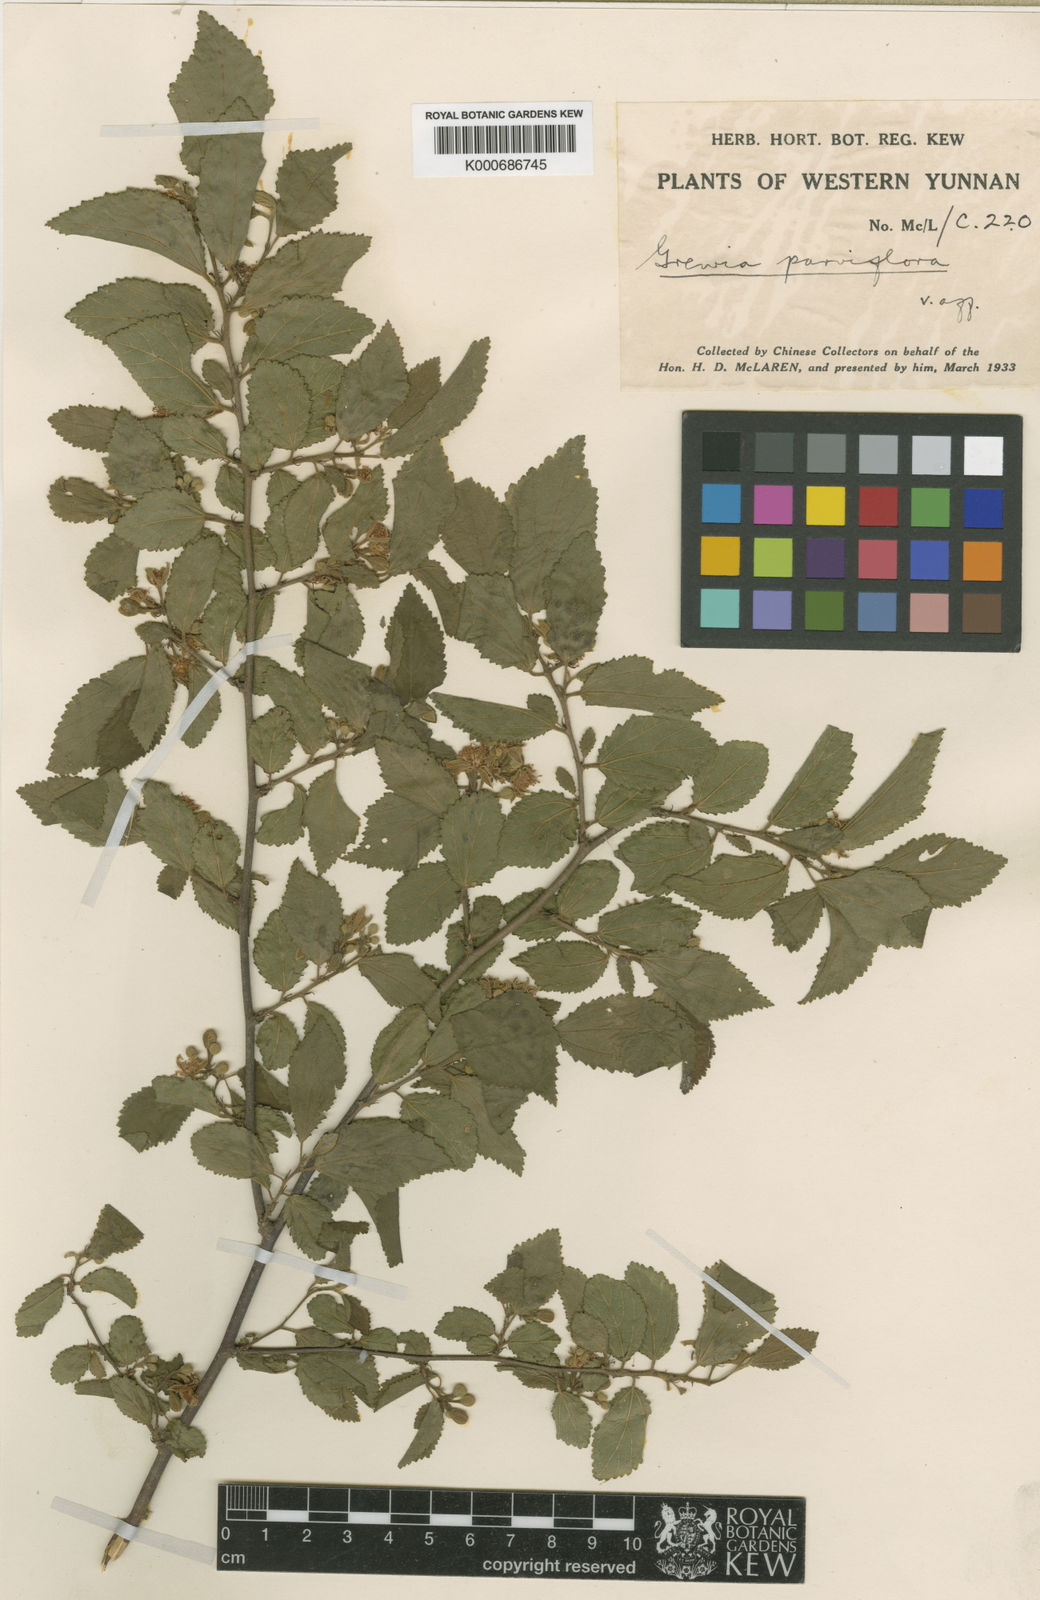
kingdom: Plantae
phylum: Tracheophyta
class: Magnoliopsida
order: Malvales
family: Malvaceae
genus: Grewia
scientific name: Grewia biloba
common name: Bilobed grewia
